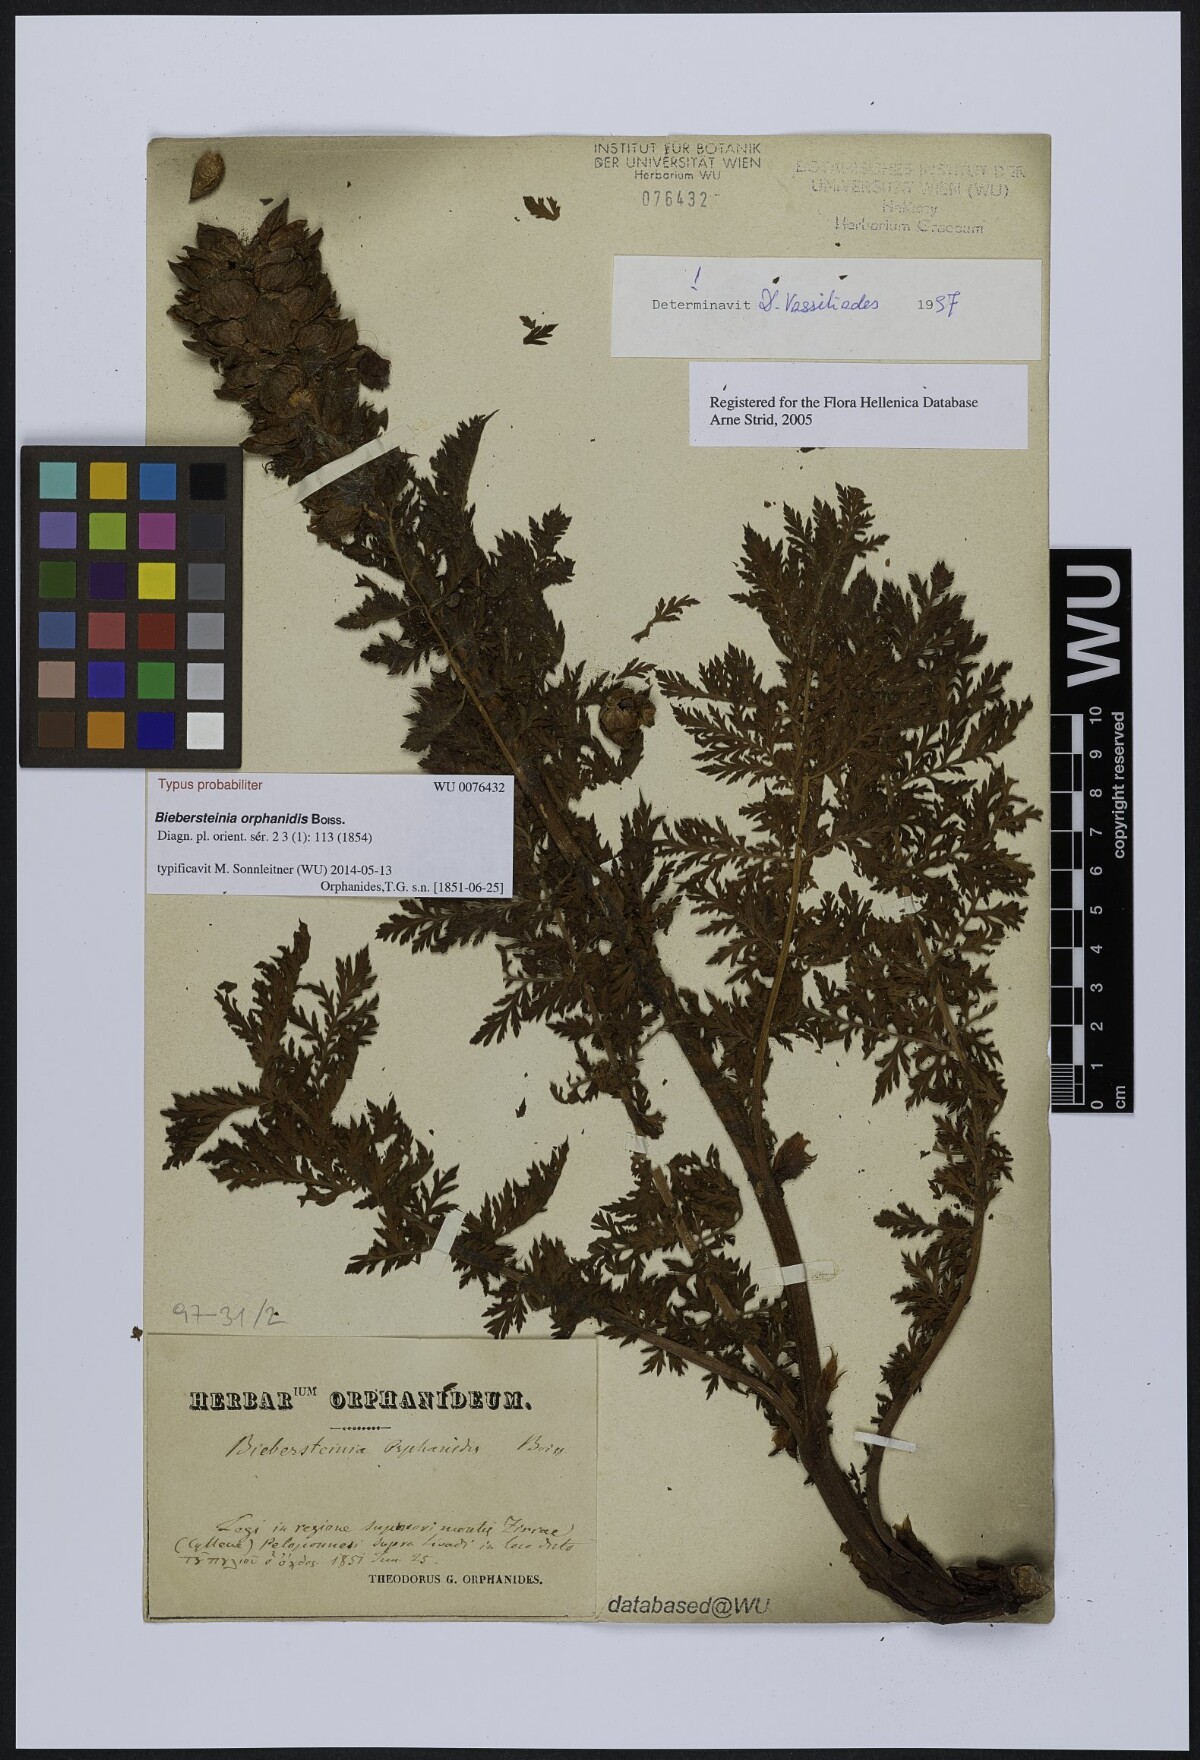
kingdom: Plantae
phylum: Tracheophyta
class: Magnoliopsida
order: Sapindales
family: Biebersteiniaceae
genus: Biebersteinia
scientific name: Biebersteinia orphanidis
